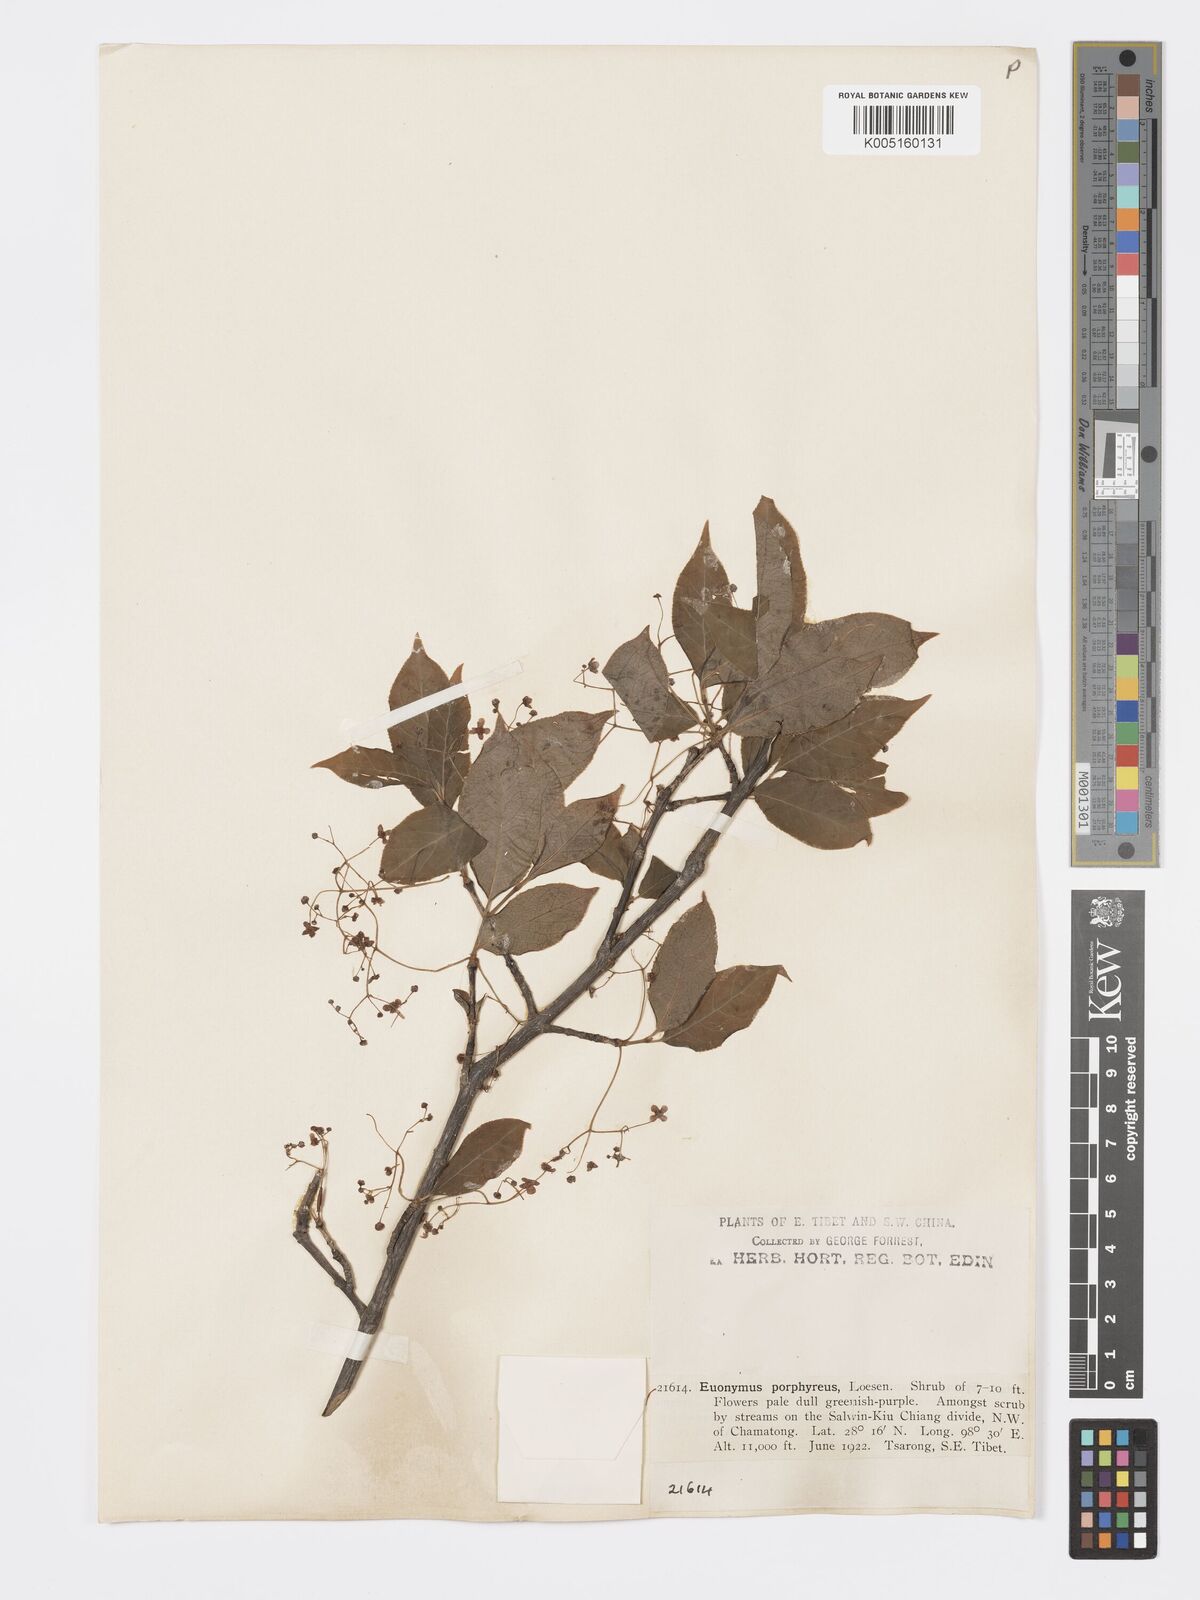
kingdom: Plantae
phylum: Tracheophyta
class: Magnoliopsida
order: Celastrales
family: Celastraceae
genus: Euonymus
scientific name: Euonymus amygdalifolius
